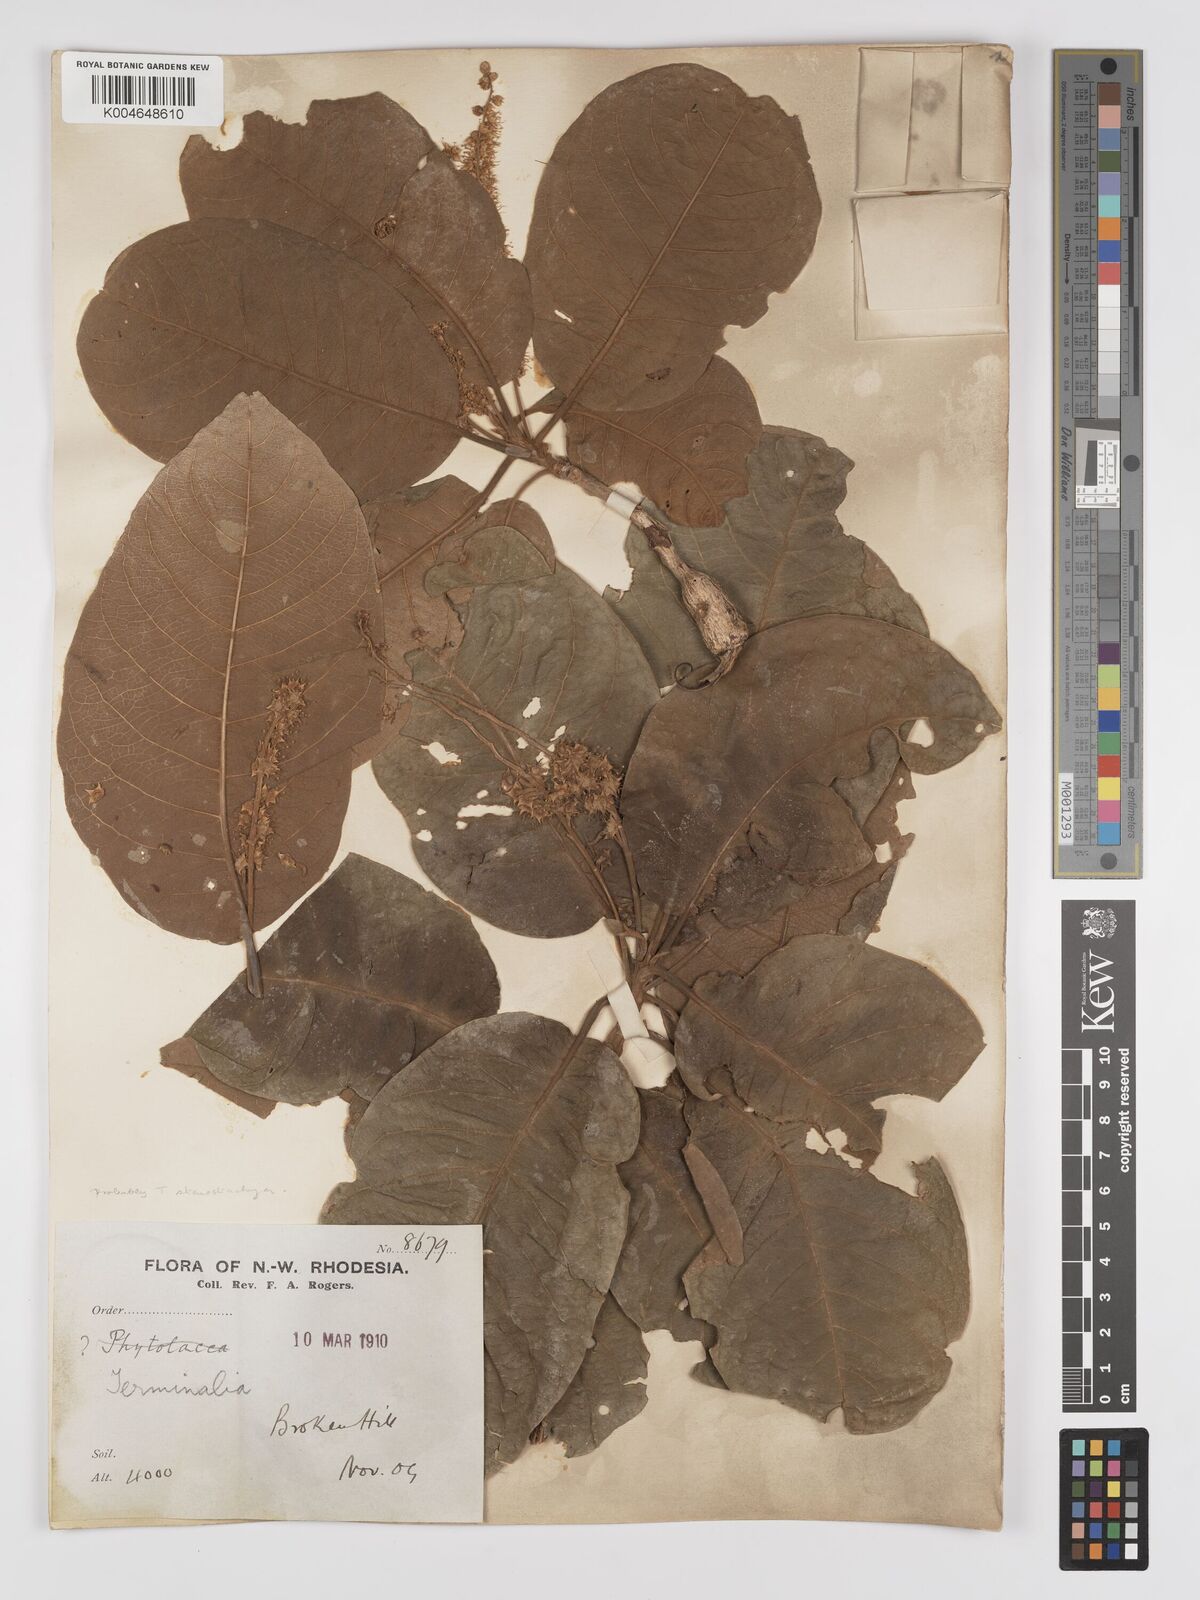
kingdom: Plantae
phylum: Tracheophyta
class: Magnoliopsida
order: Myrtales
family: Combretaceae
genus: Terminalia
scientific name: Terminalia
